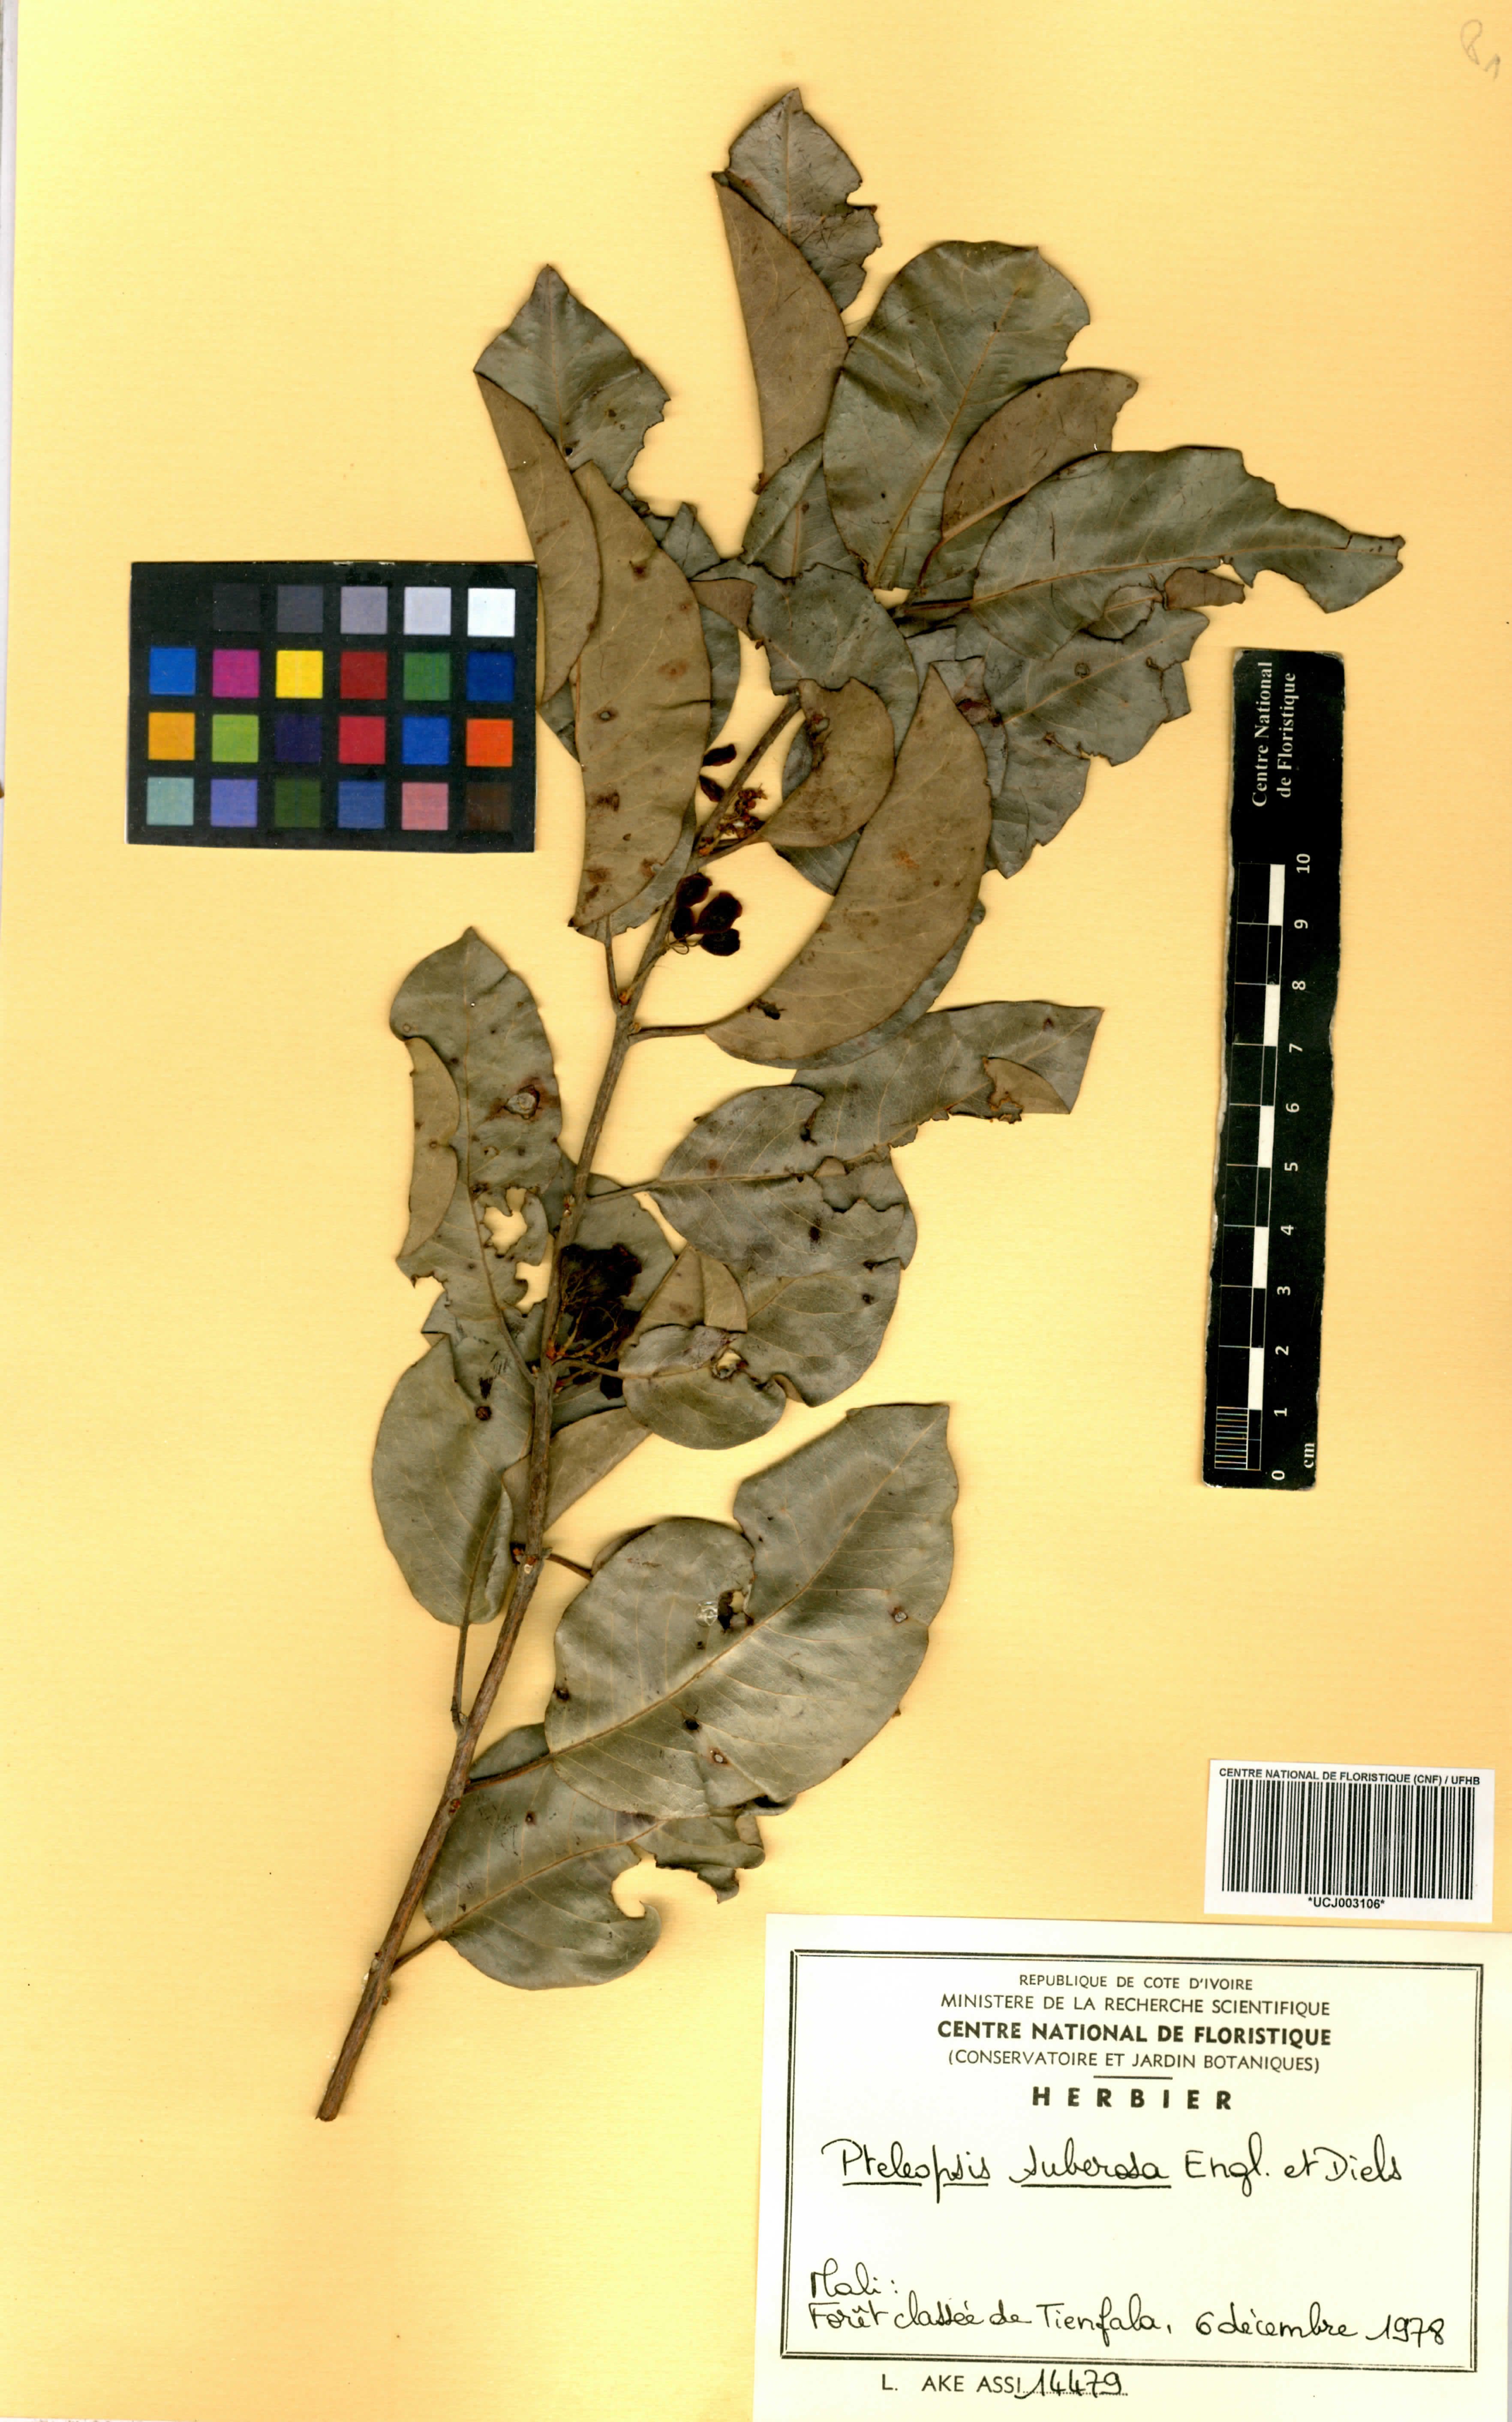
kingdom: Plantae
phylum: Tracheophyta
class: Magnoliopsida
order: Myrtales
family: Combretaceae
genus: Terminalia
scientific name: Terminalia engleri
